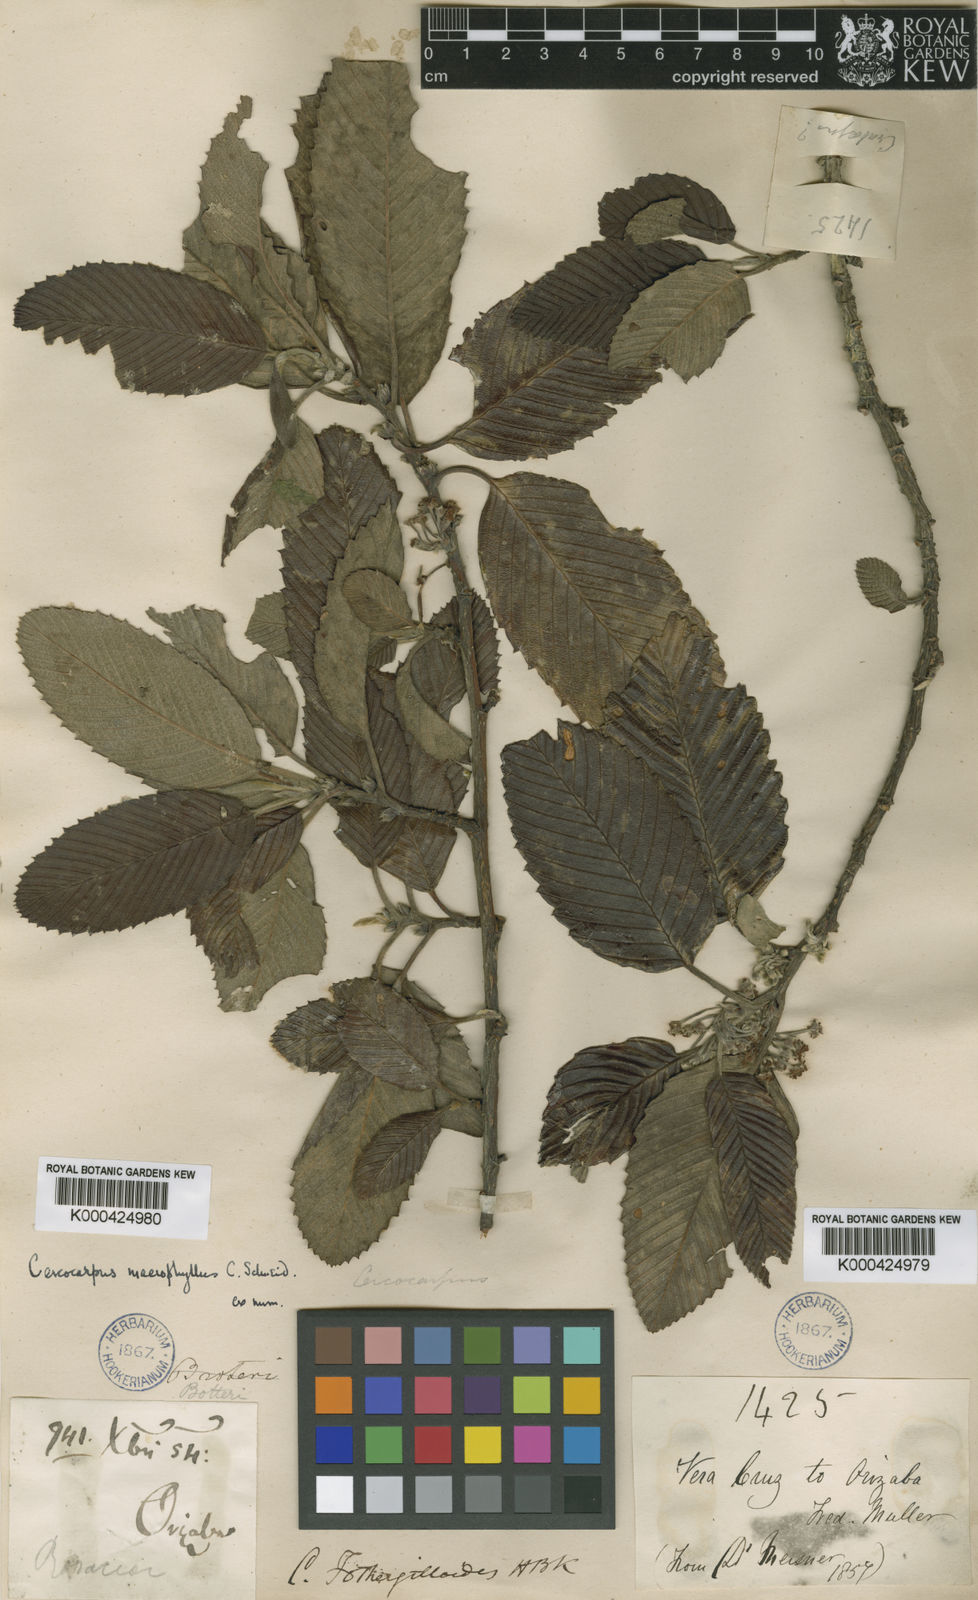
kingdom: Plantae
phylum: Tracheophyta
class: Magnoliopsida
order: Rosales
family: Rosaceae
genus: Cercocarpus
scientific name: Cercocarpus
